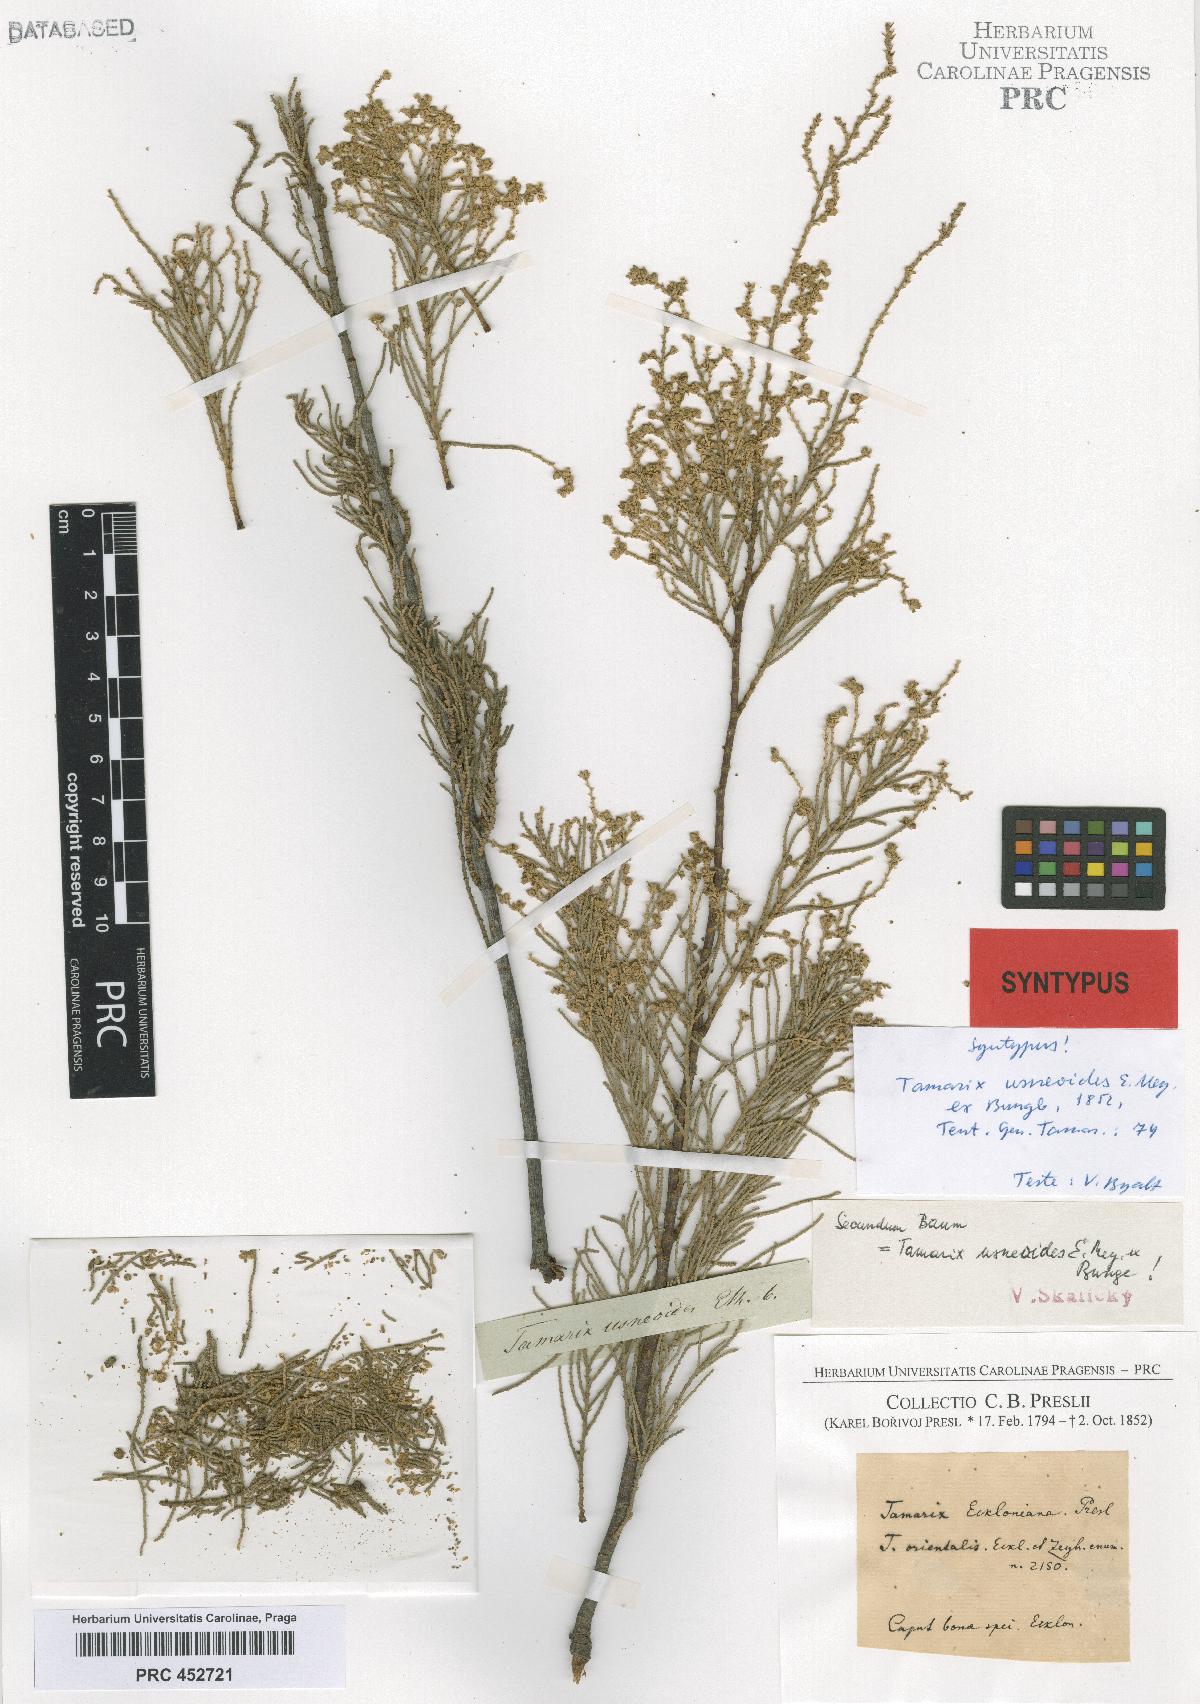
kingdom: Plantae
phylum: Tracheophyta
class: Magnoliopsida
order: Caryophyllales
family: Tamaricaceae
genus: Tamarix
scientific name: Tamarix usneoides
